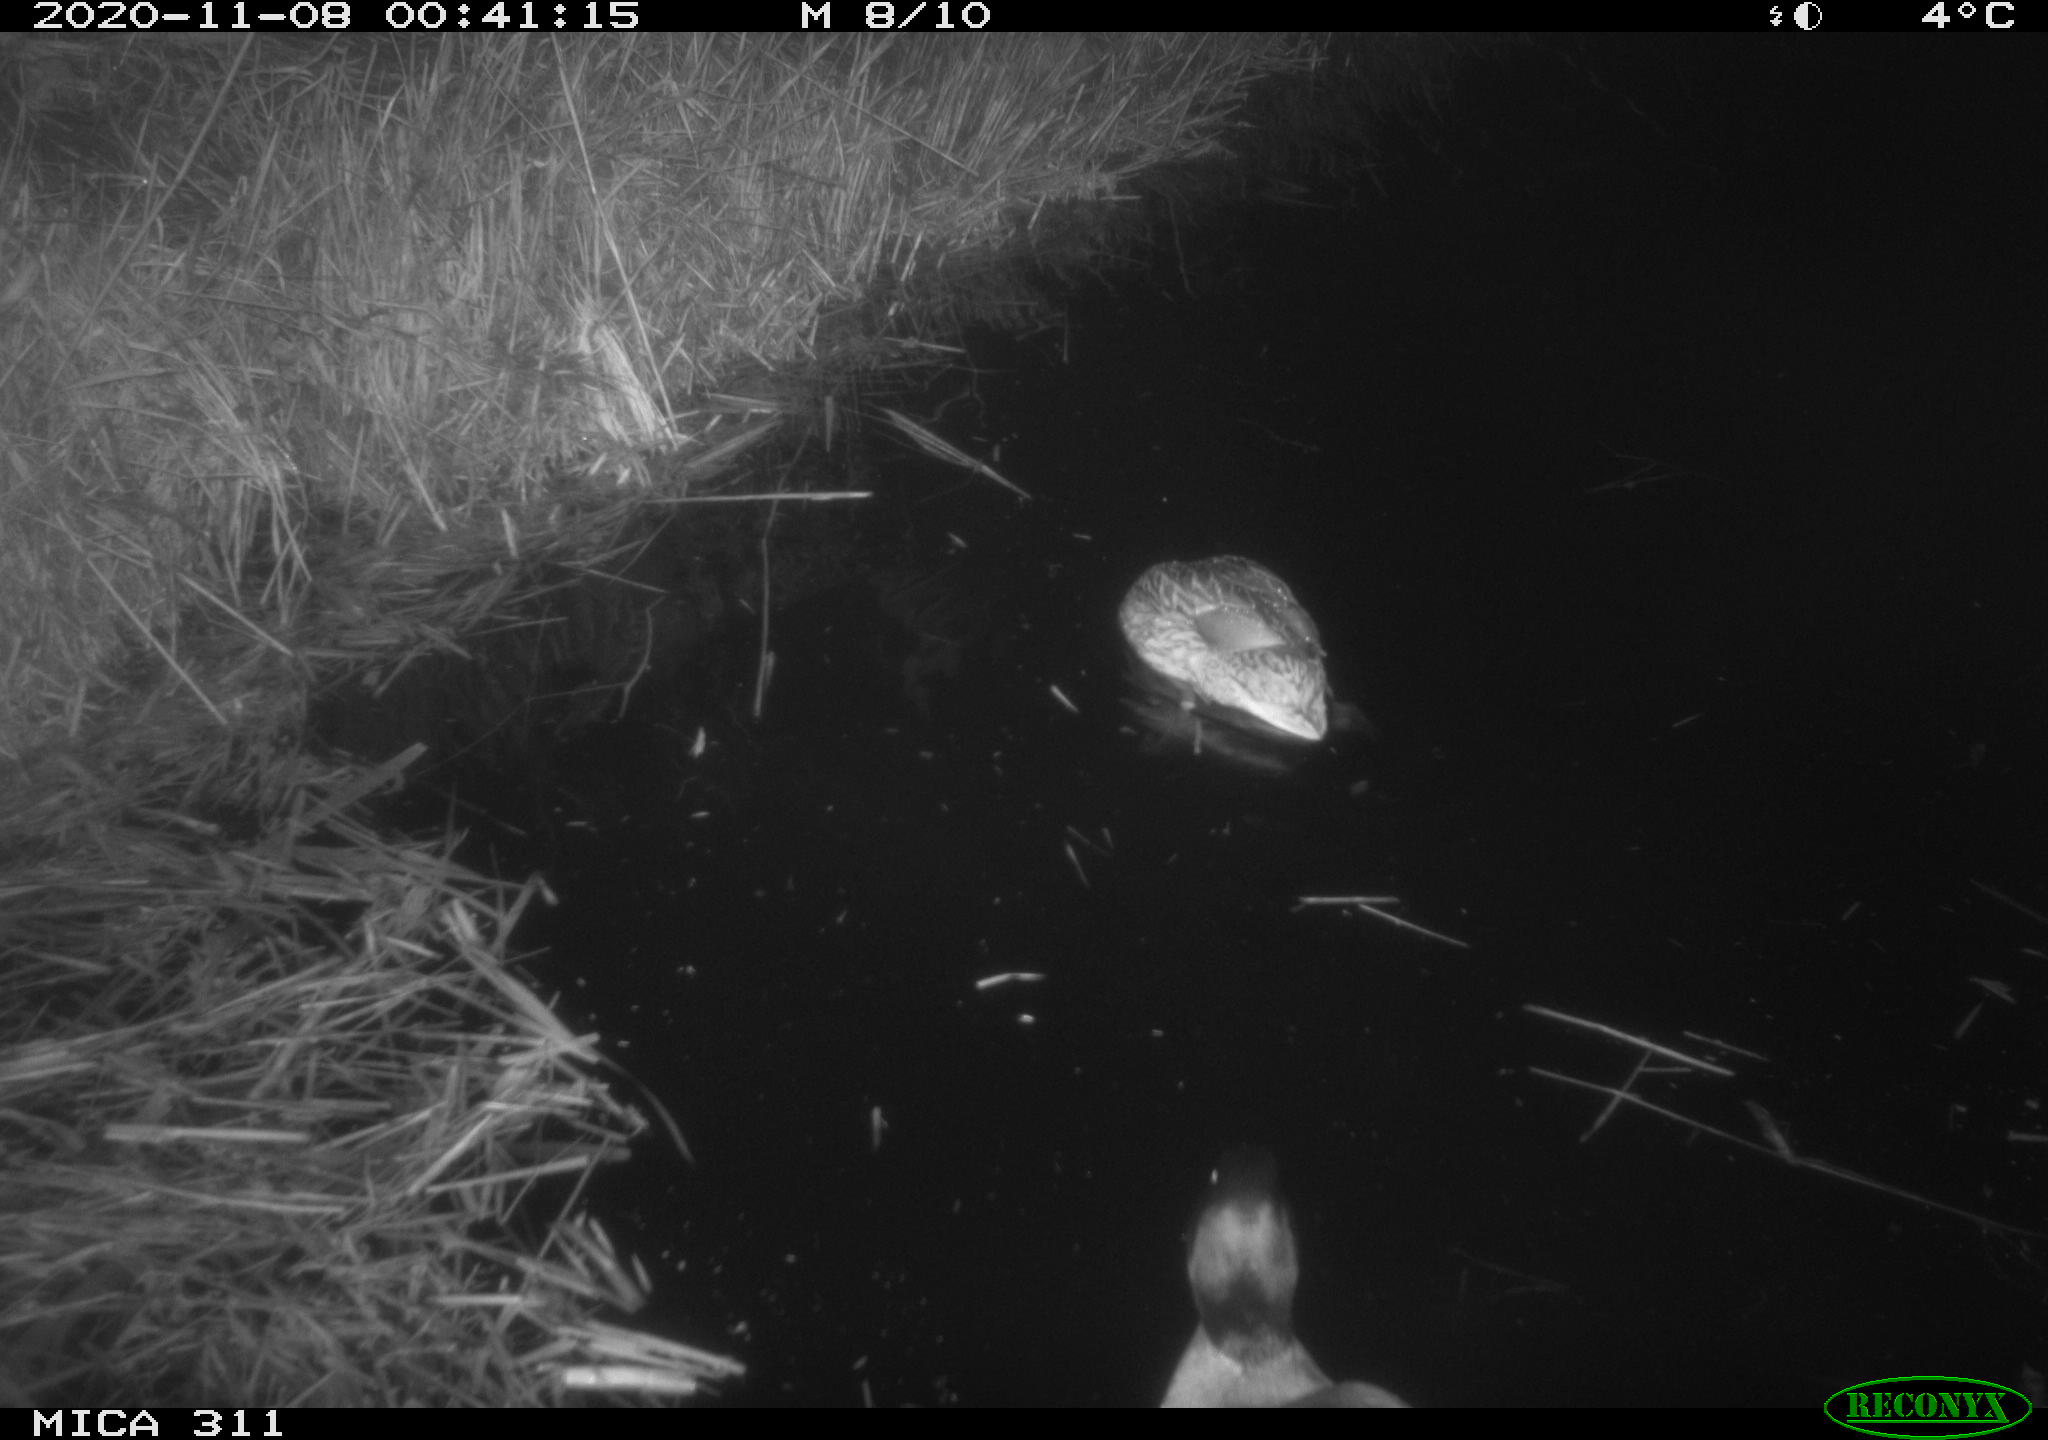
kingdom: Animalia
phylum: Chordata
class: Aves
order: Anseriformes
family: Anatidae
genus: Anas
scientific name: Anas platyrhynchos
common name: Mallard
